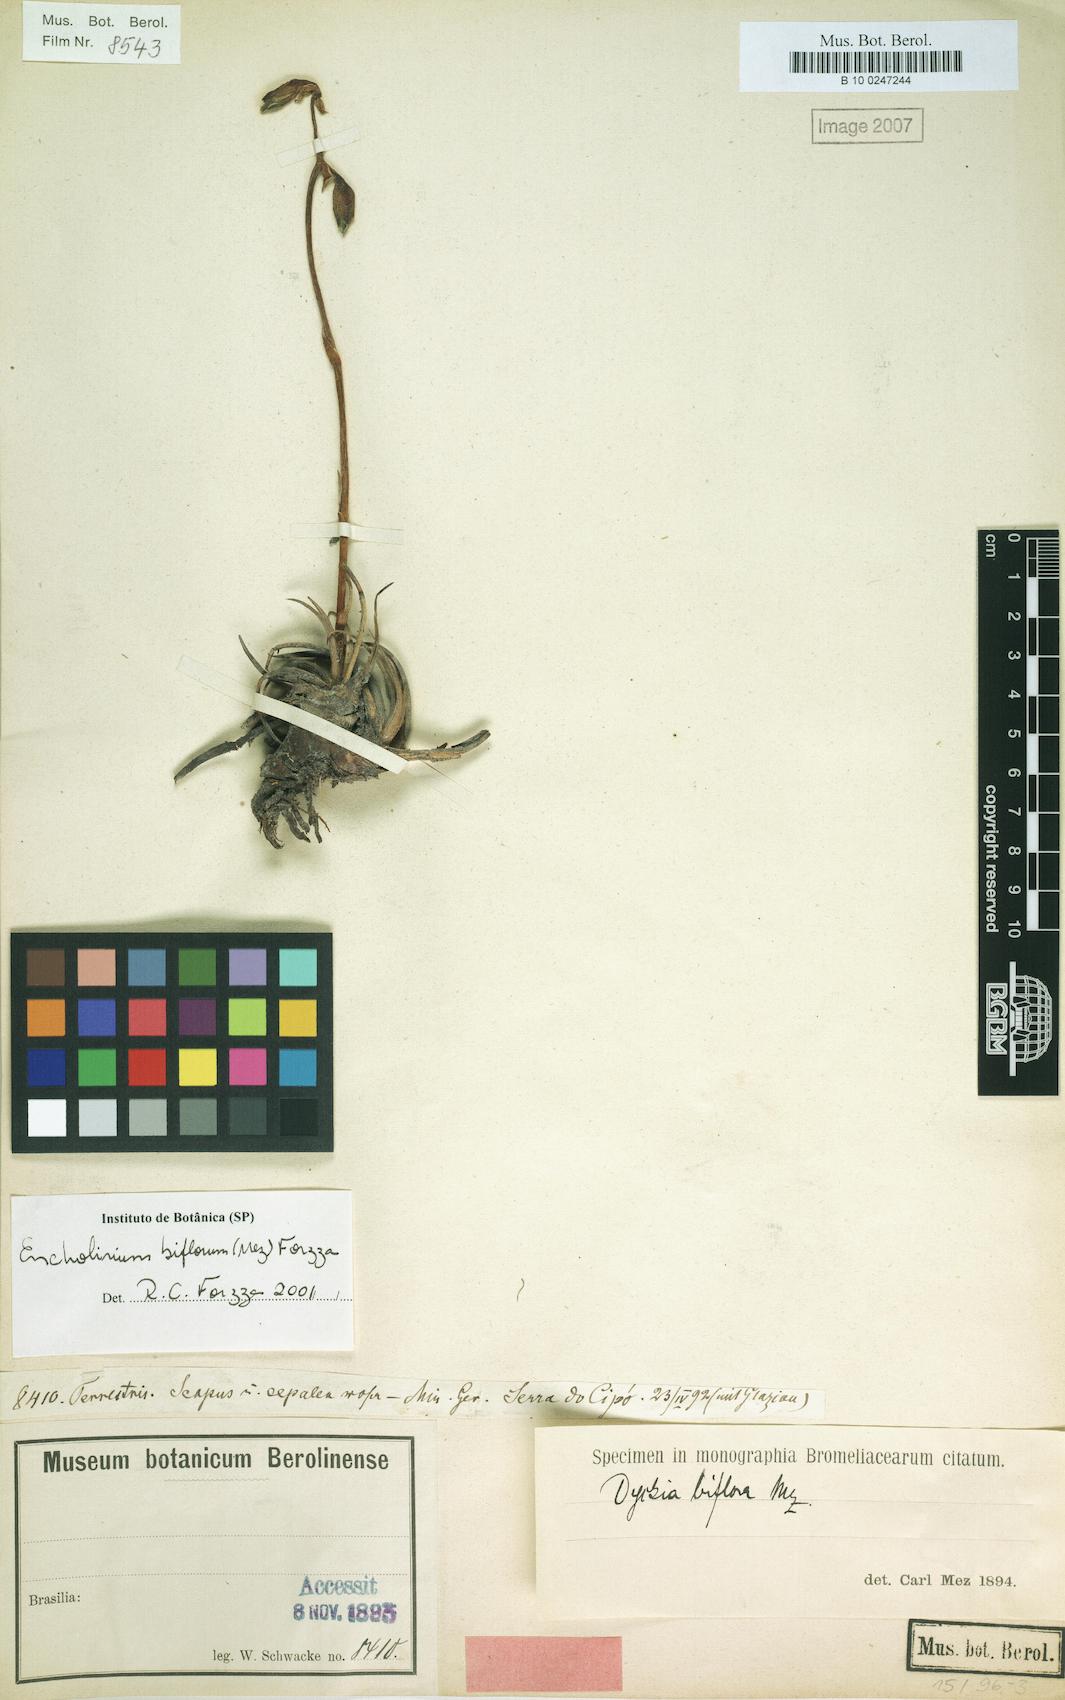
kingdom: Plantae
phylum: Tracheophyta
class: Liliopsida
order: Poales
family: Bromeliaceae
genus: Encholirium
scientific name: Encholirium biflorum
